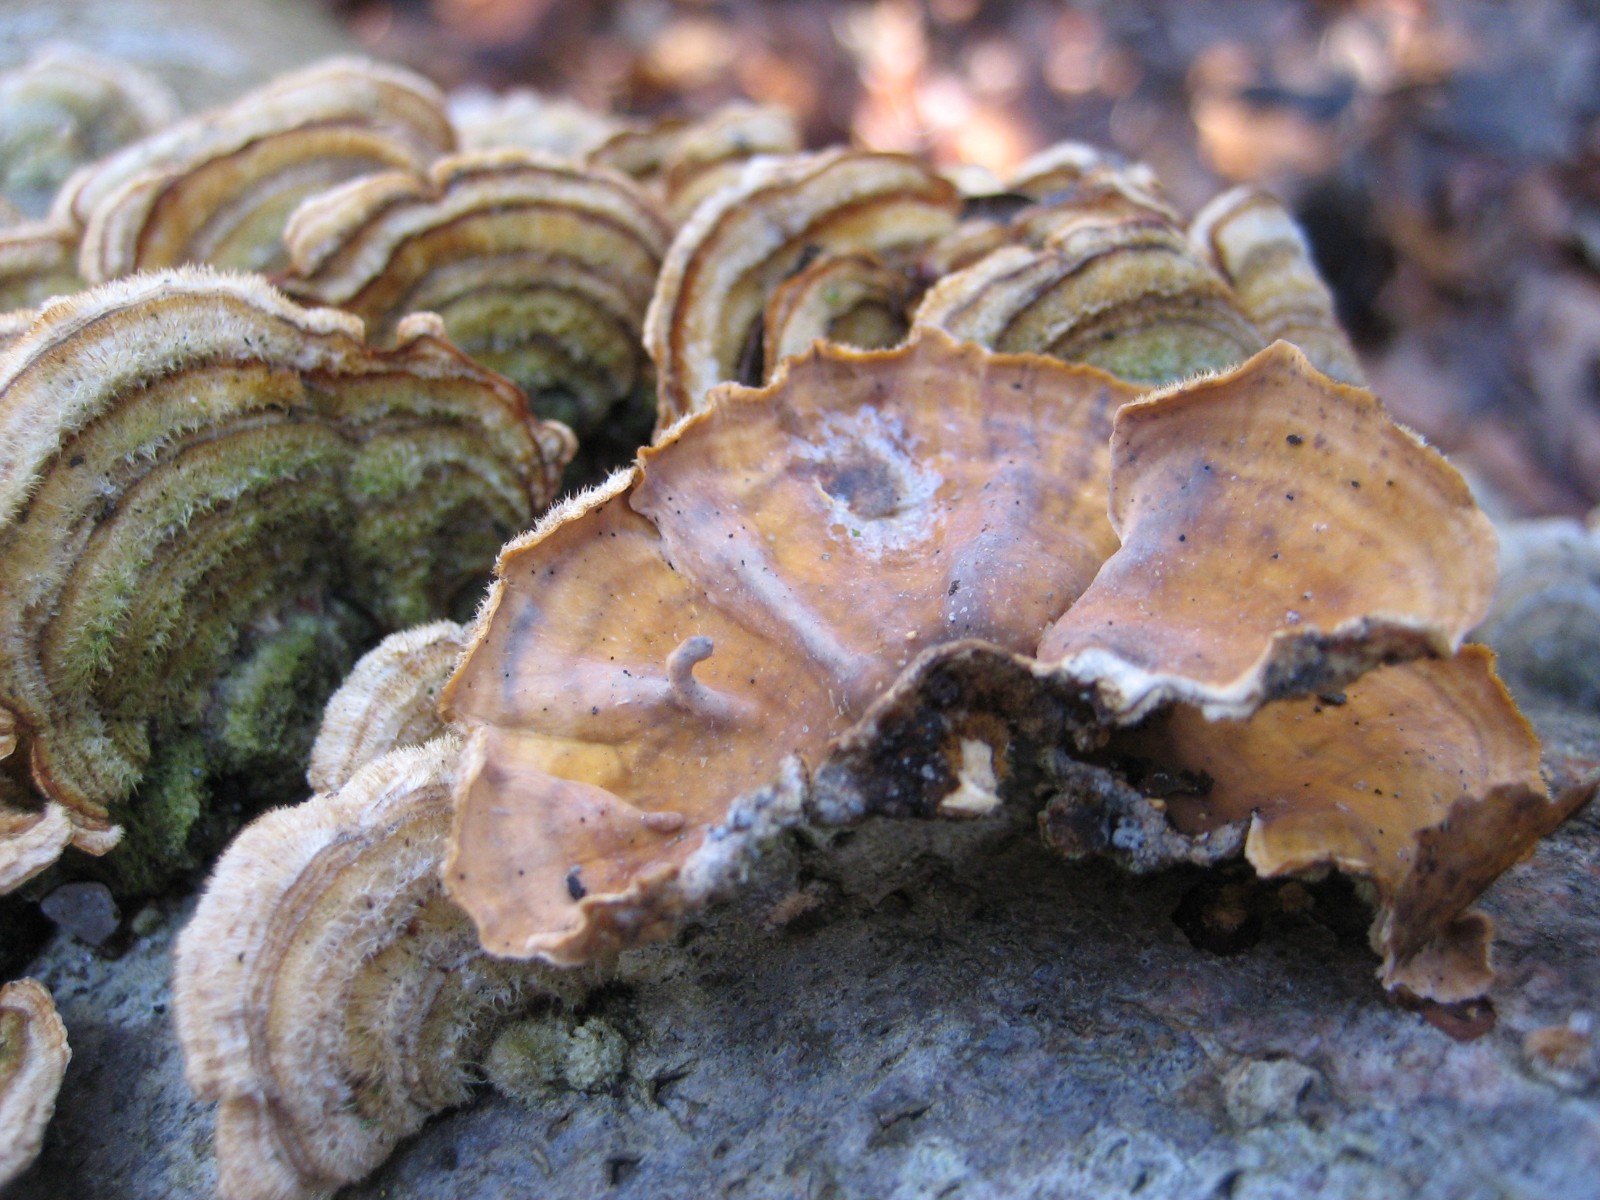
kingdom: Fungi
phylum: Basidiomycota
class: Agaricomycetes
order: Russulales
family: Stereaceae
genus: Stereum
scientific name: Stereum hirsutum
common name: håret lædersvamp
